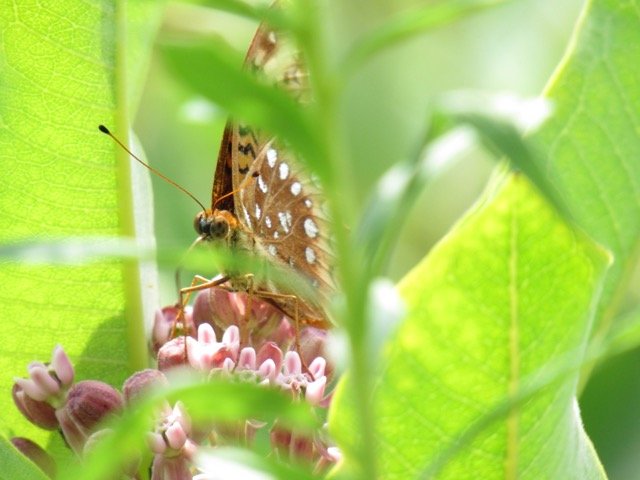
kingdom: Animalia
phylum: Arthropoda
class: Insecta
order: Lepidoptera
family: Nymphalidae
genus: Speyeria
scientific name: Speyeria cybele
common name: Great Spangled Fritillary
